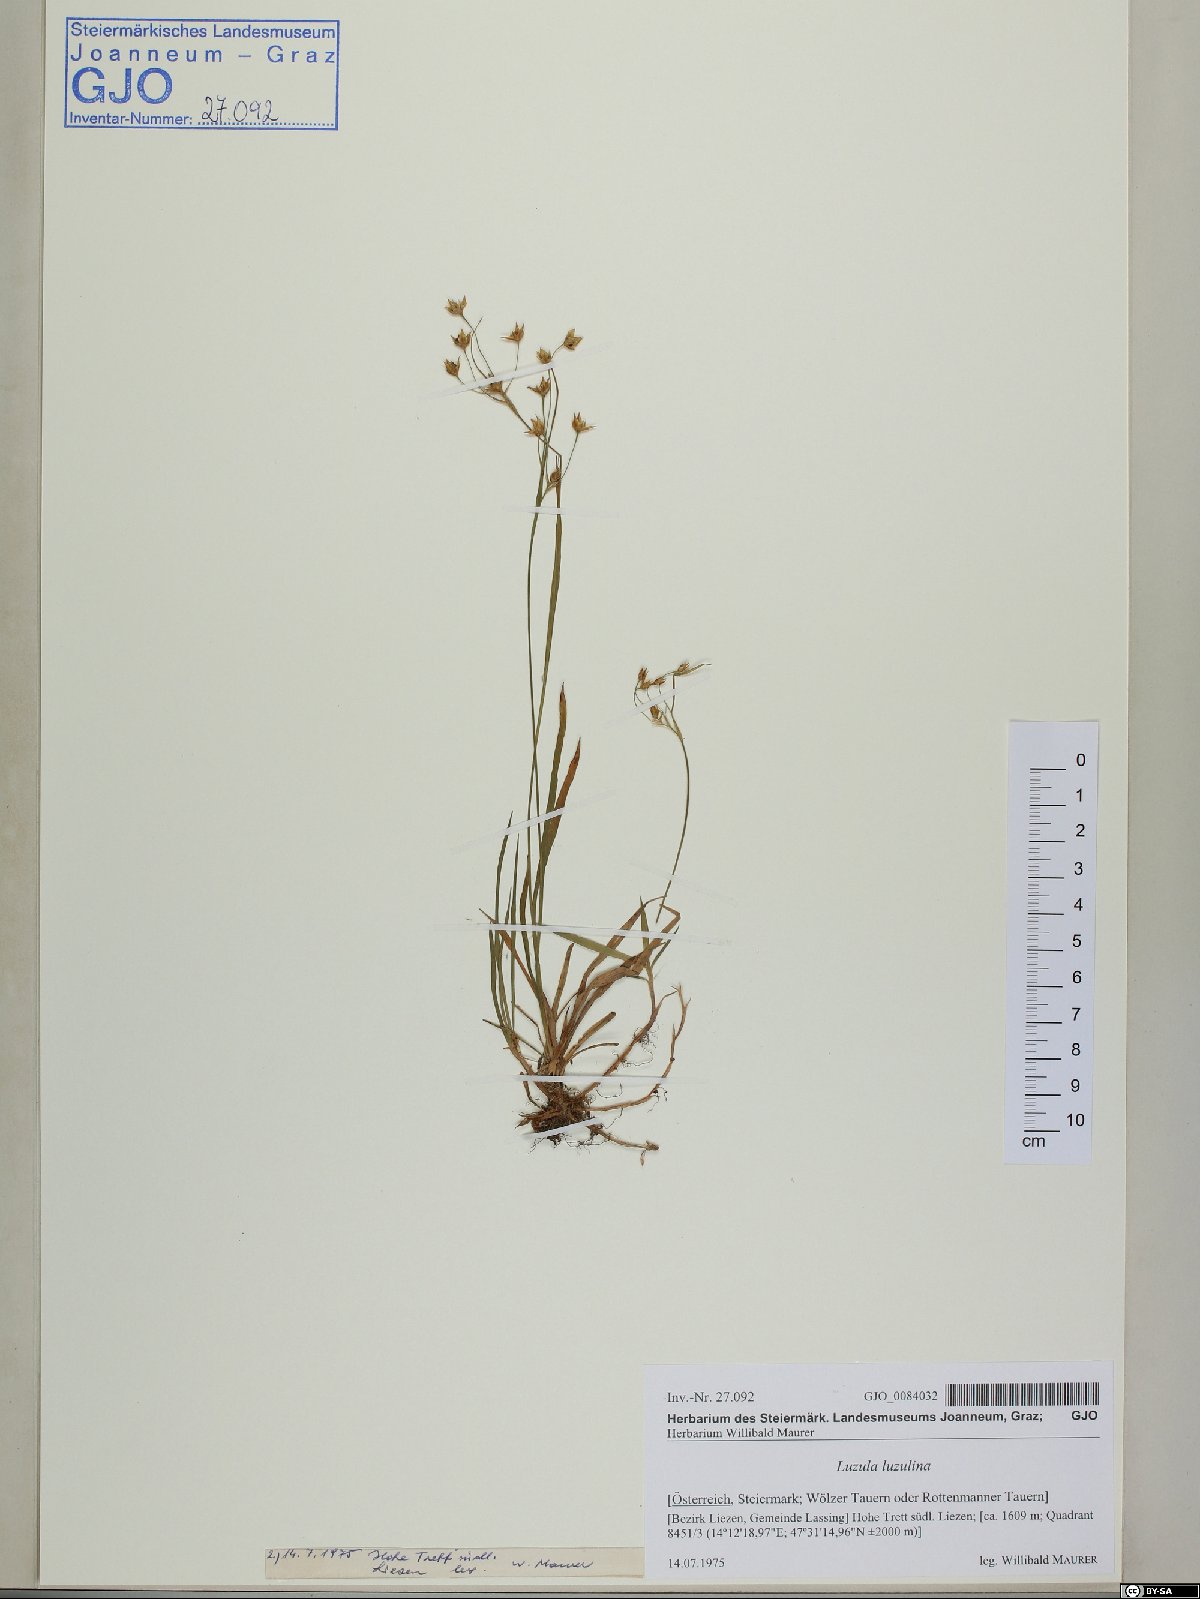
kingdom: Plantae
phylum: Tracheophyta
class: Liliopsida
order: Poales
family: Juncaceae
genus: Luzula
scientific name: Luzula luzulina
